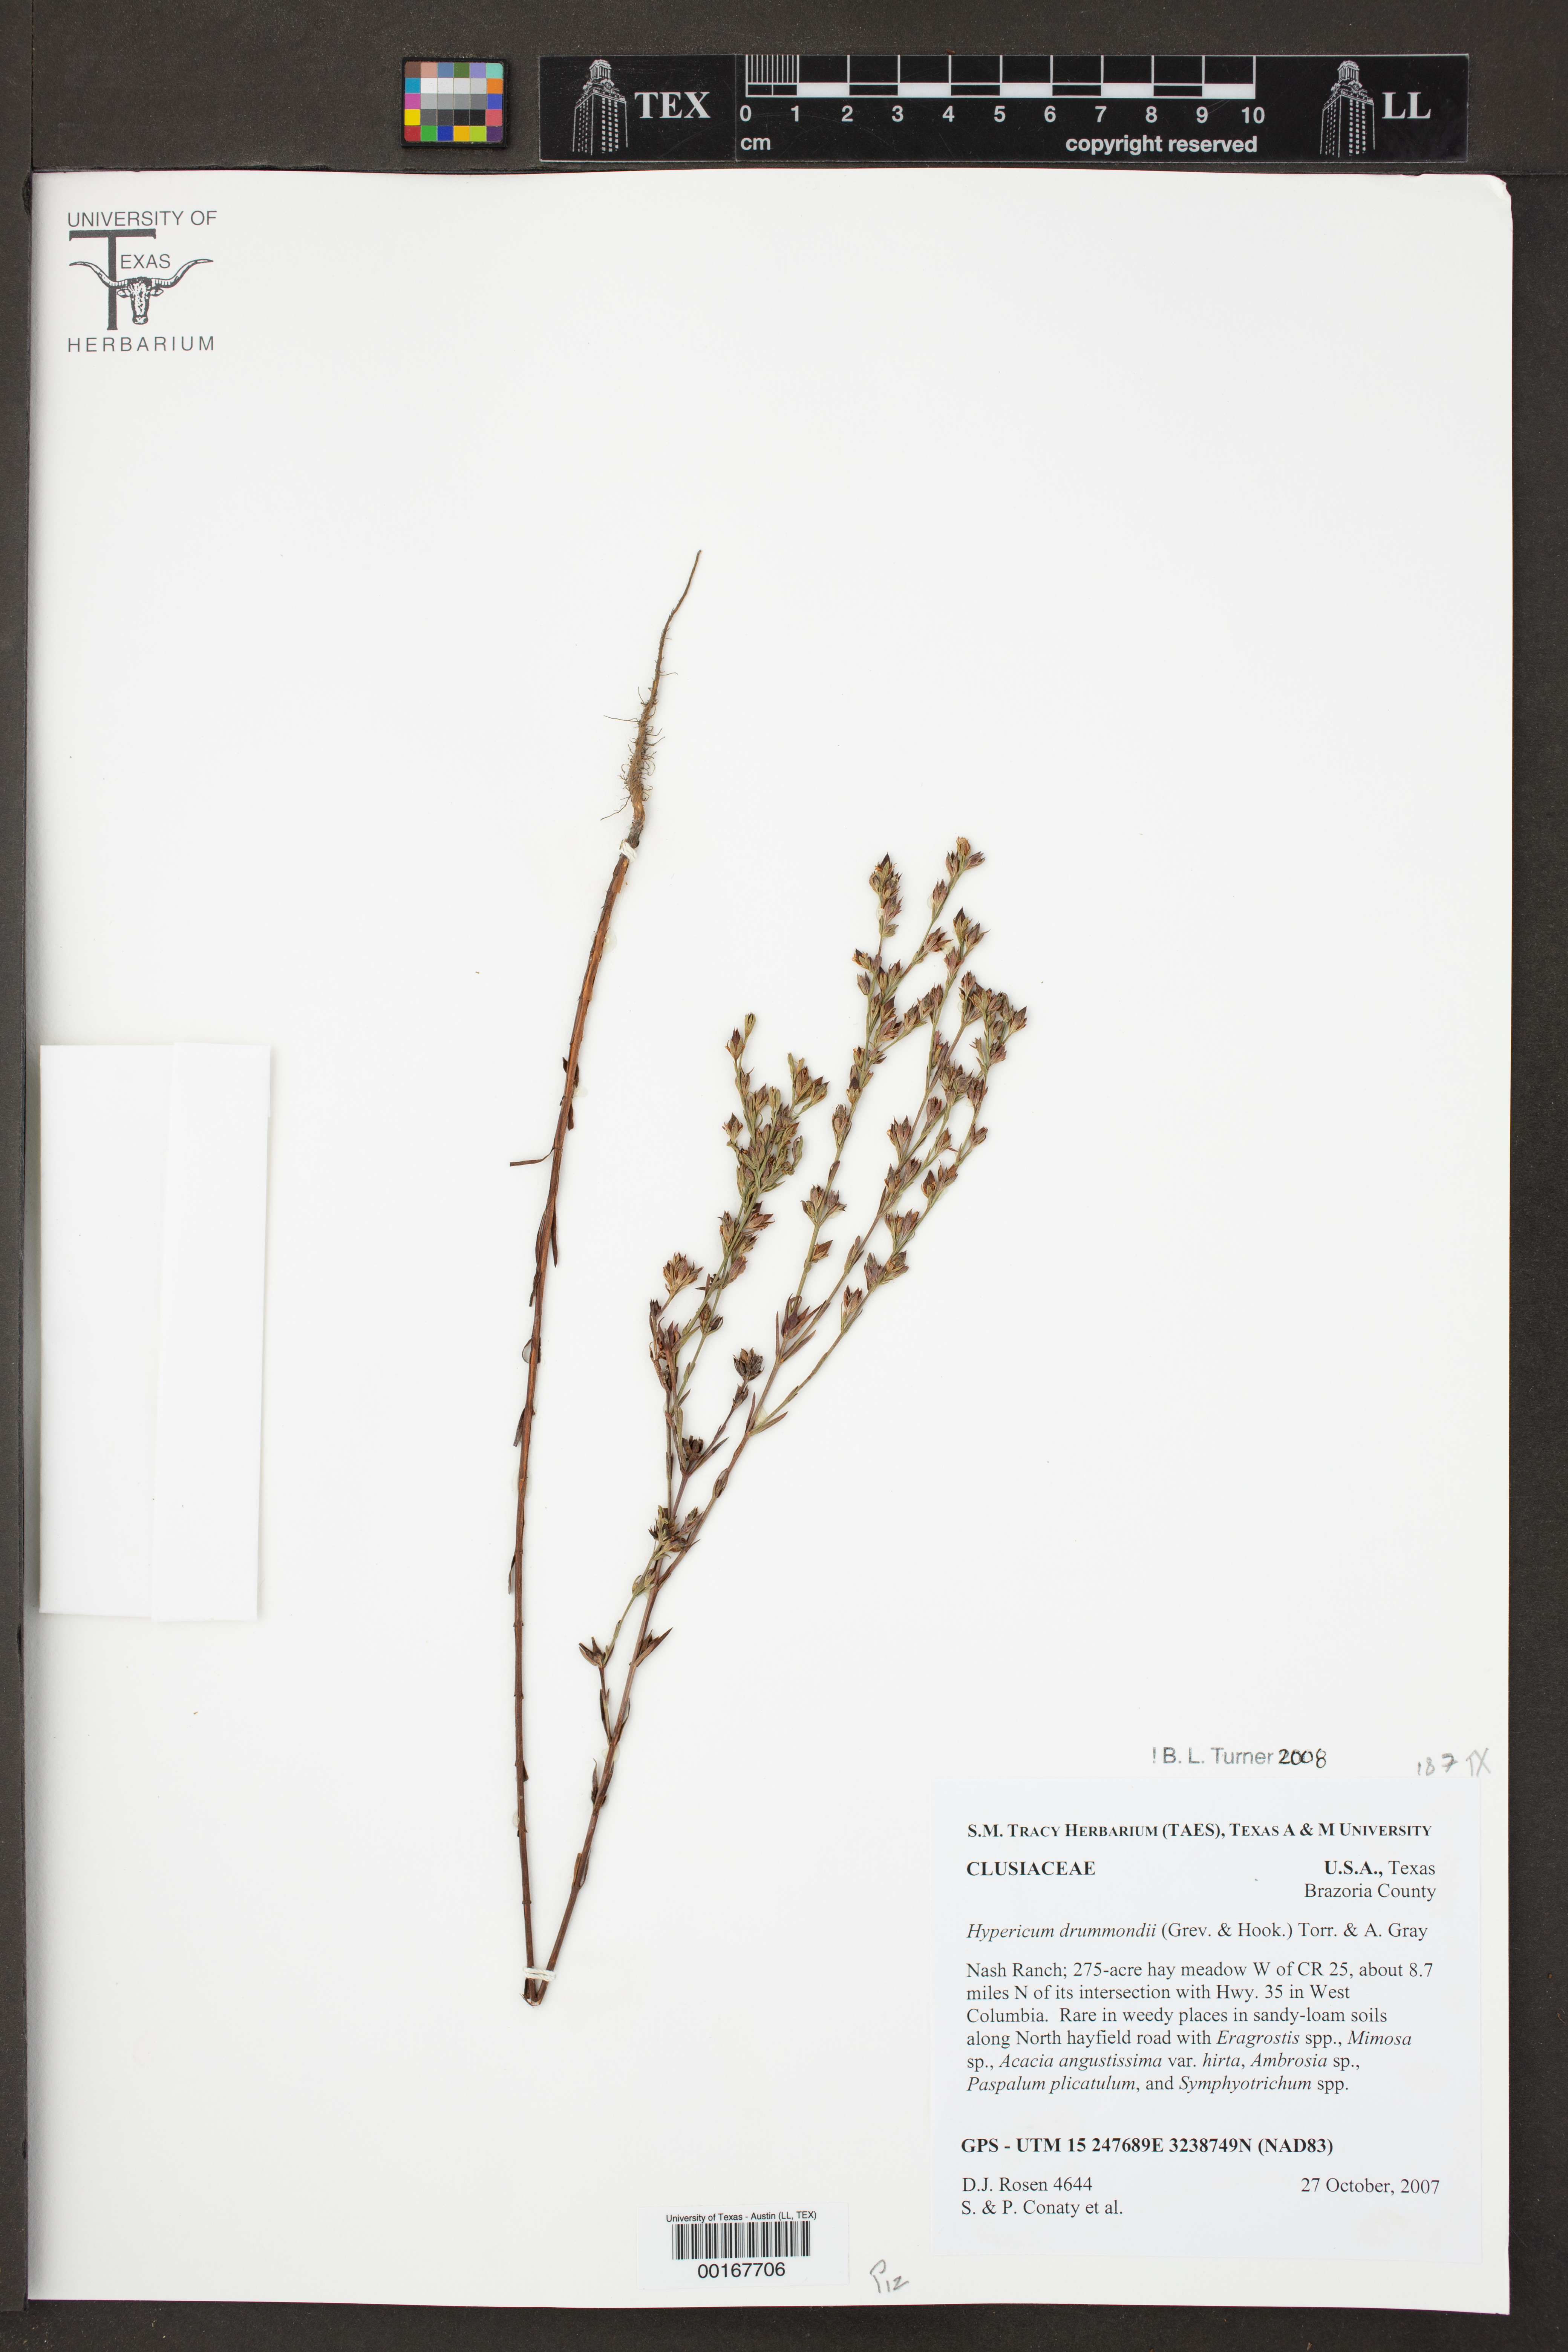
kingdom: Plantae
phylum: Tracheophyta
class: Magnoliopsida
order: Malpighiales
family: Hypericaceae
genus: Hypericum
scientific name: Hypericum drummondii
